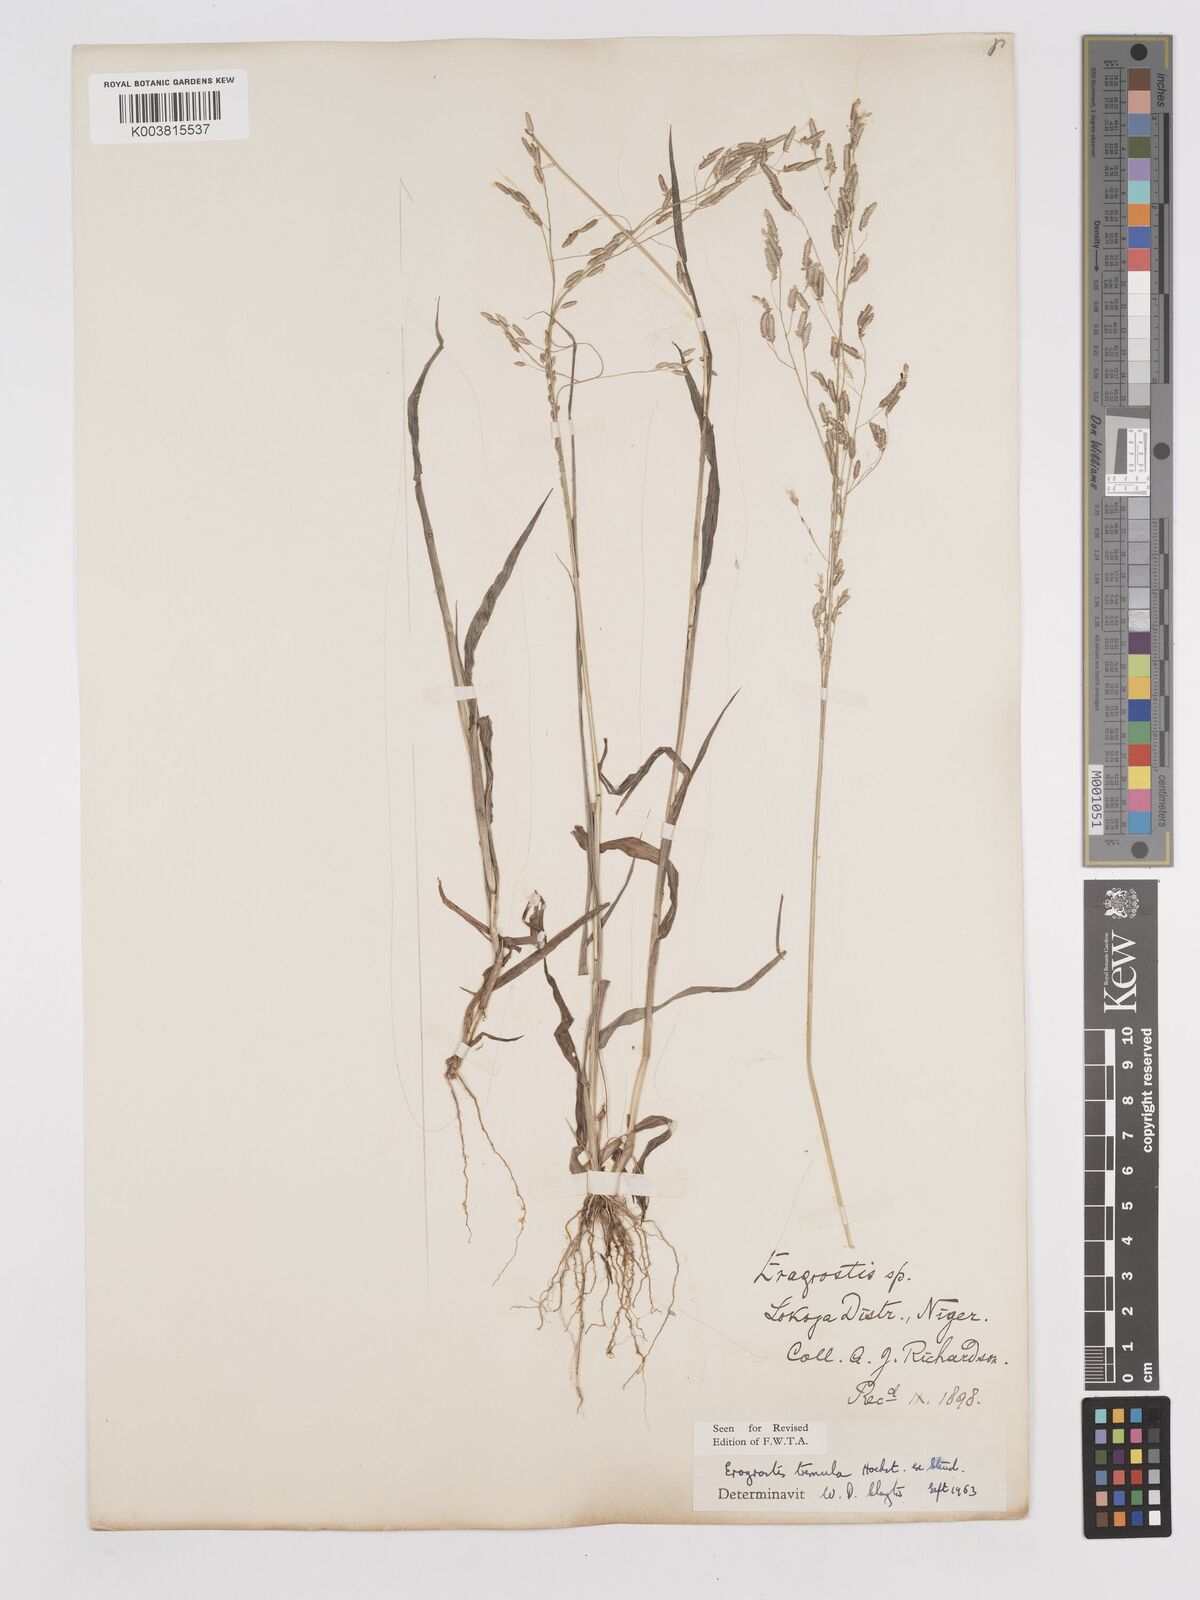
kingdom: Plantae
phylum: Tracheophyta
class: Liliopsida
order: Poales
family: Poaceae
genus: Eragrostis
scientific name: Eragrostis tremula
